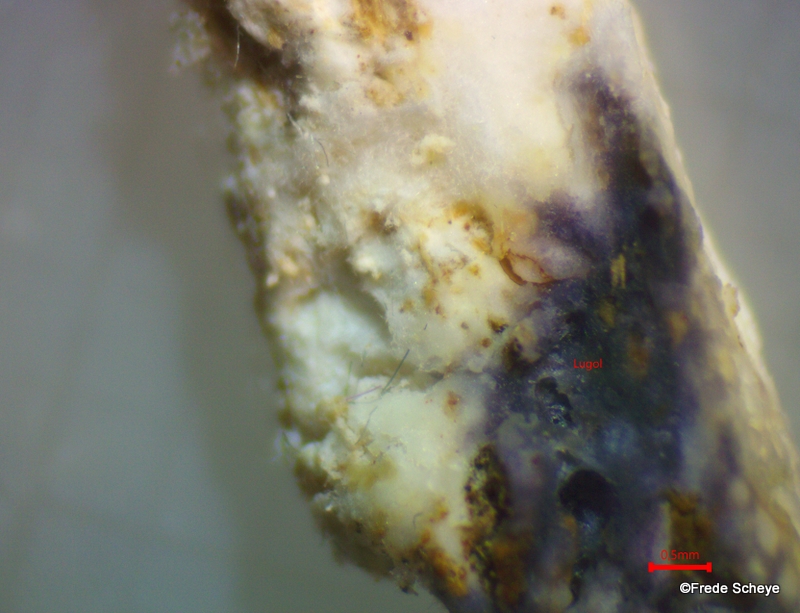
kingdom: Fungi
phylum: Basidiomycota
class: Agaricomycetes
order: Polyporales
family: Fomitopsidaceae
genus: Daedalea
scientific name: Daedalea xantha
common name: gul sejporesvamp
